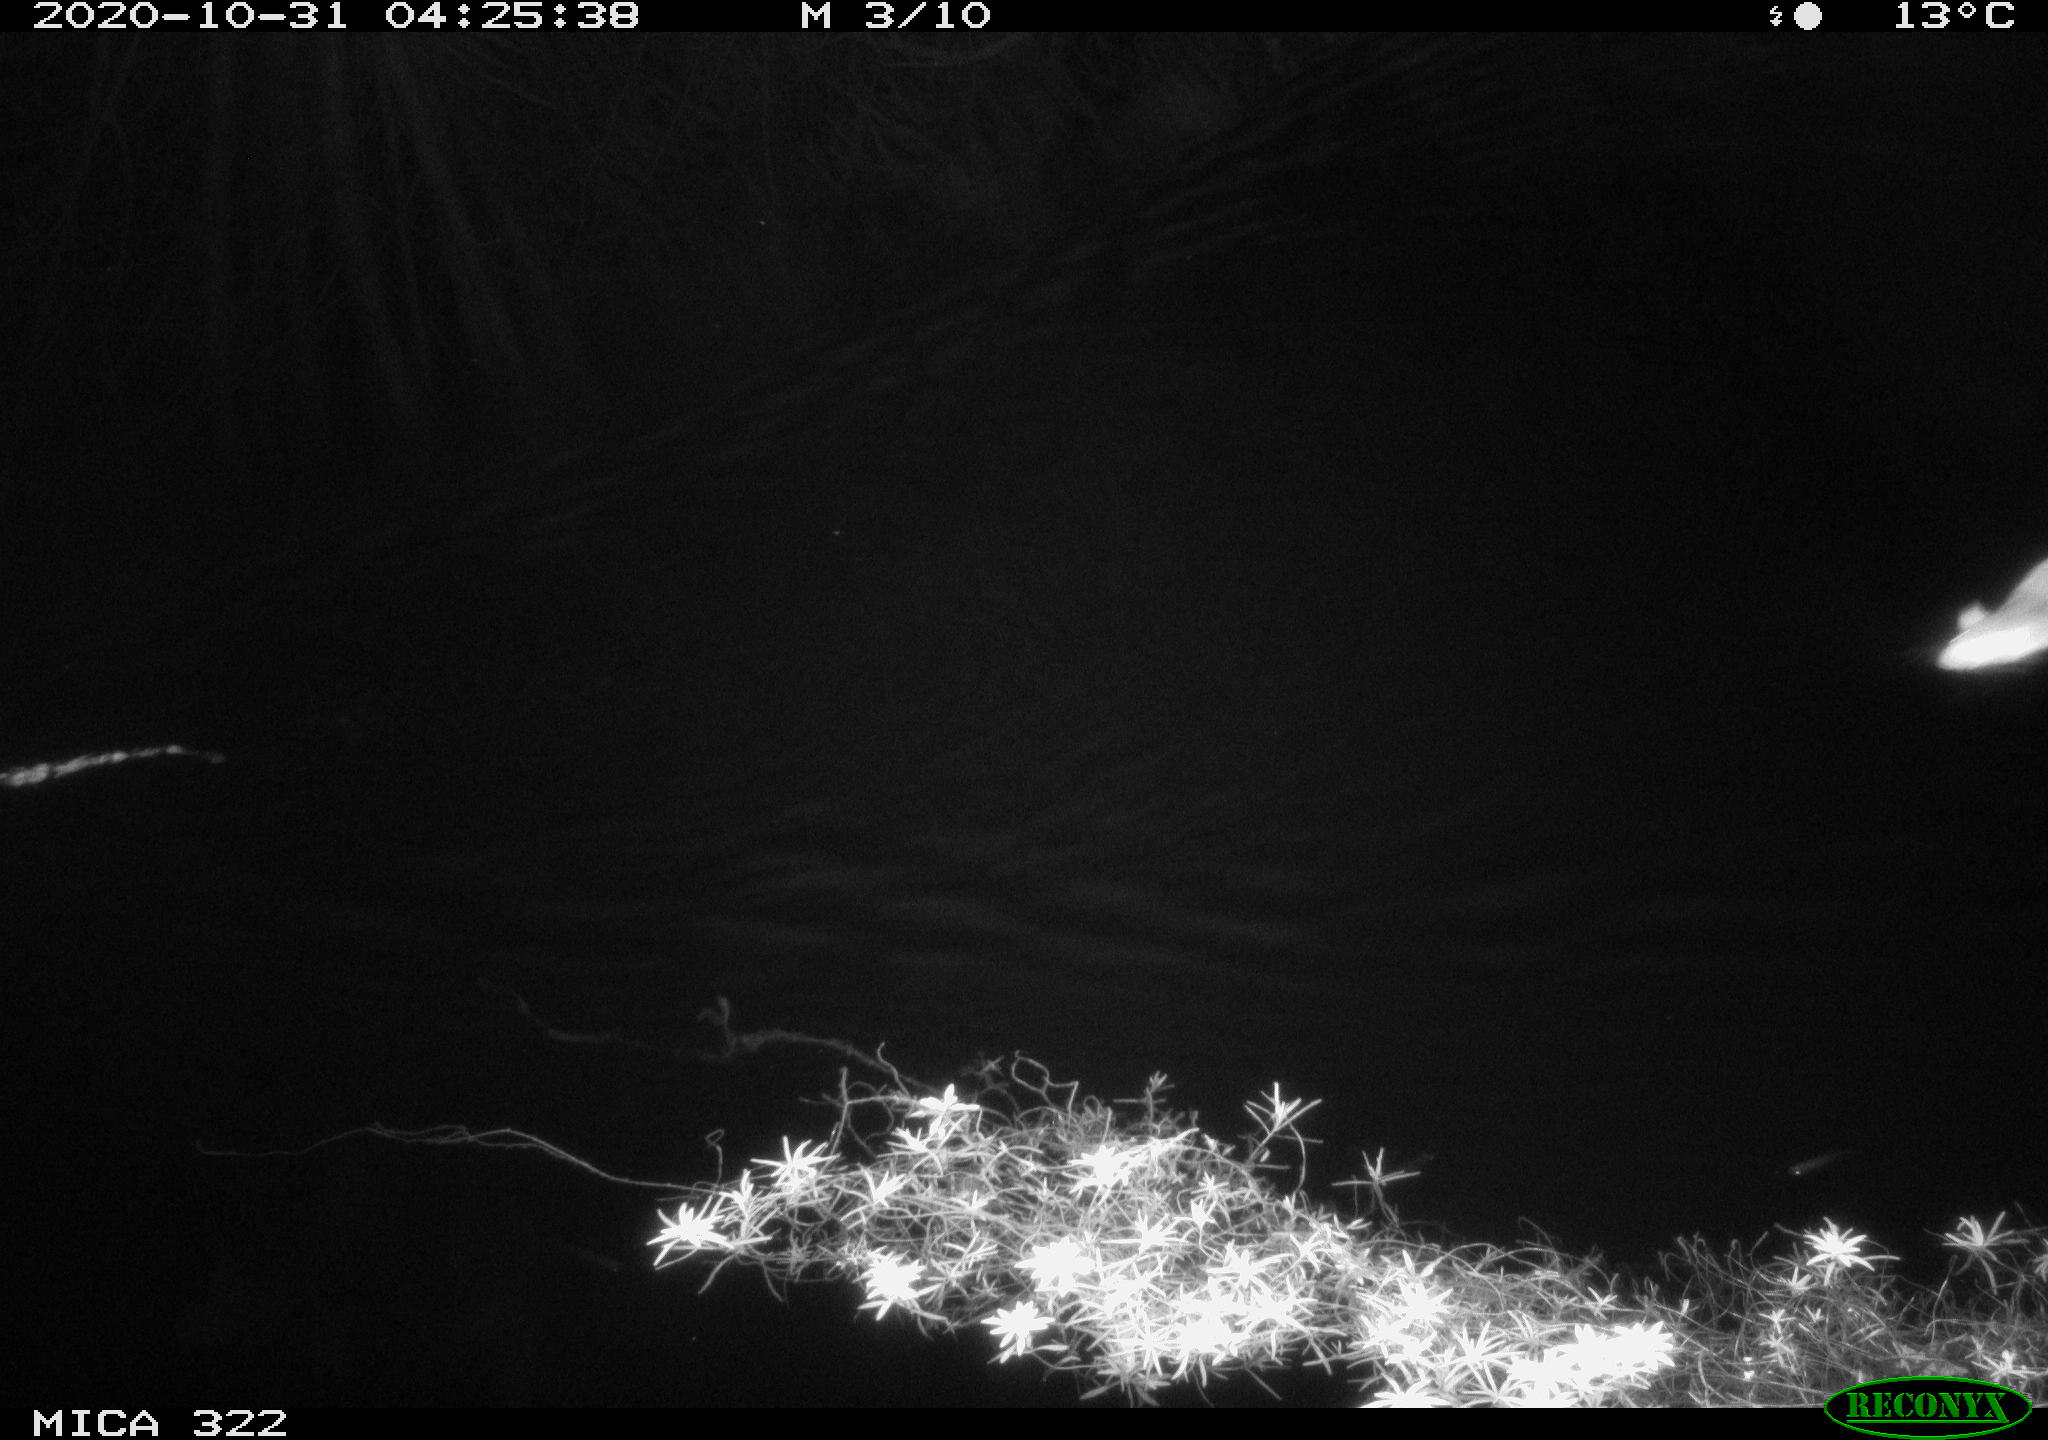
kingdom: Animalia
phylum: Chordata
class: Mammalia
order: Rodentia
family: Muridae
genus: Rattus
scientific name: Rattus norvegicus
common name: Brown rat
